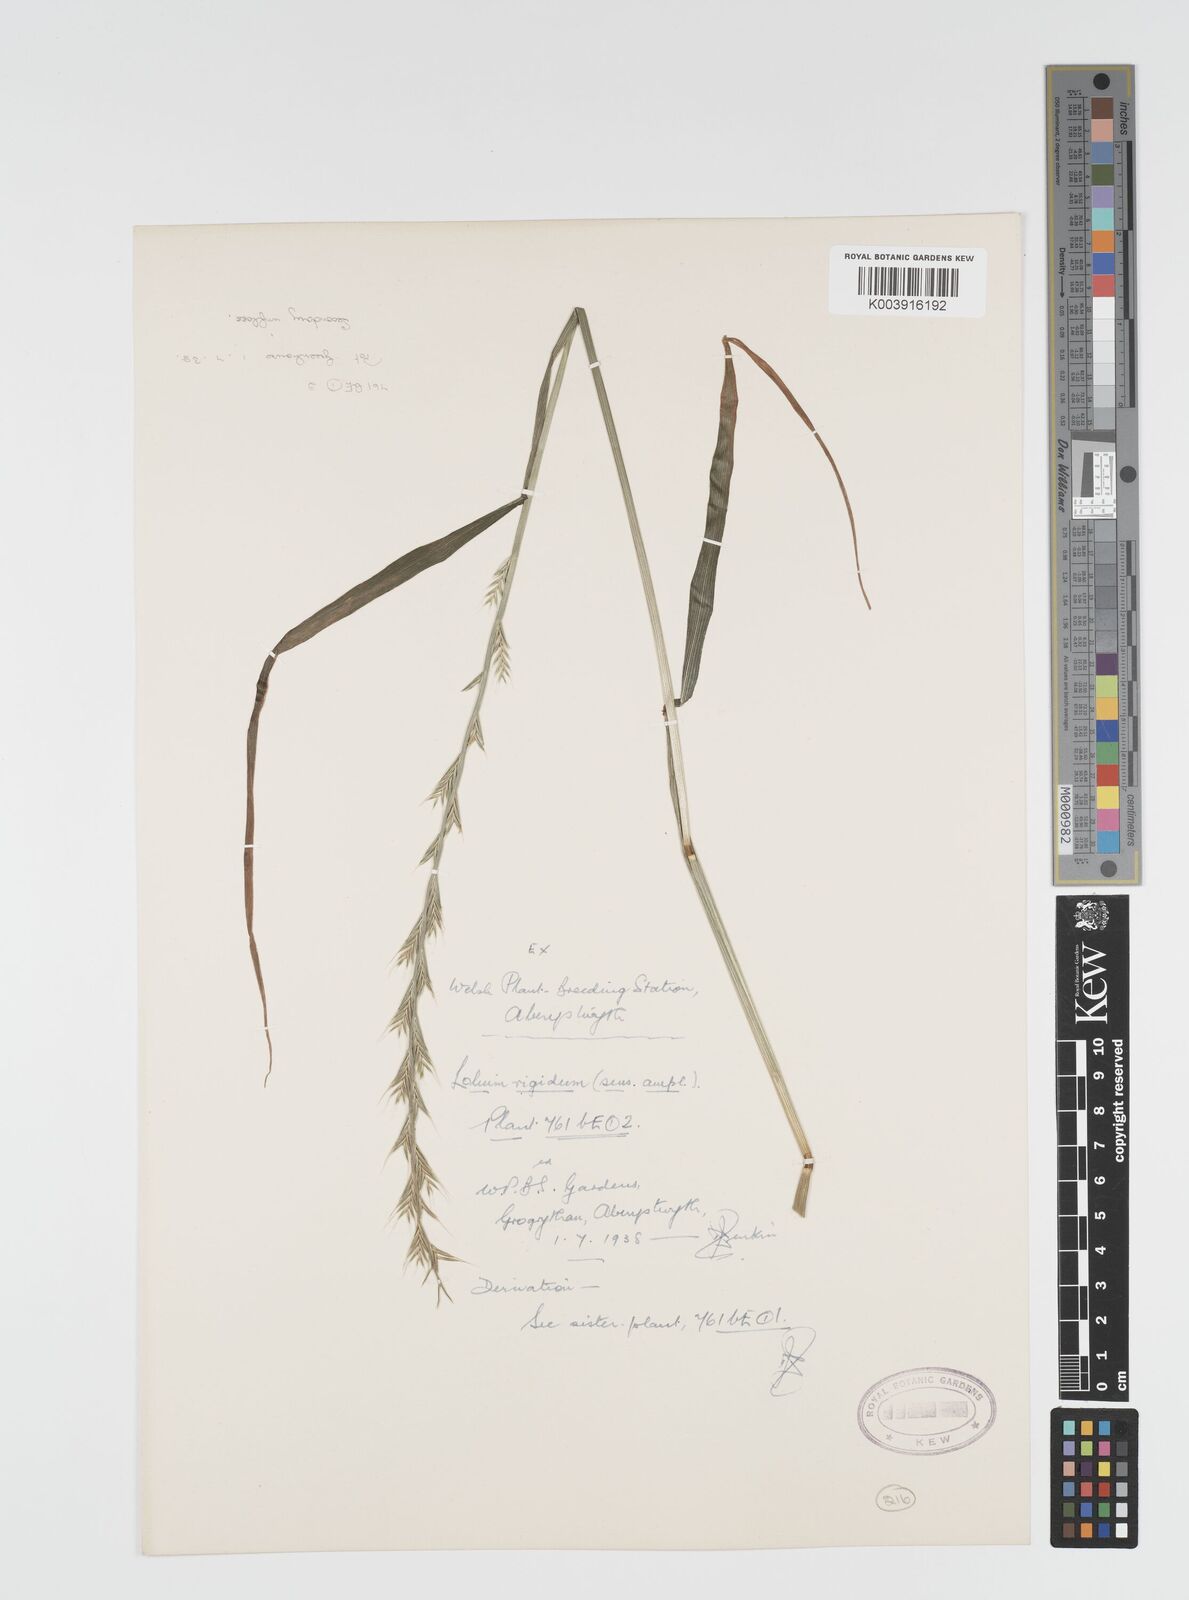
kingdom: Plantae
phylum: Tracheophyta
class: Liliopsida
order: Poales
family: Poaceae
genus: Lolium
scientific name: Lolium rigidum
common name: Wimmera ryegrass
